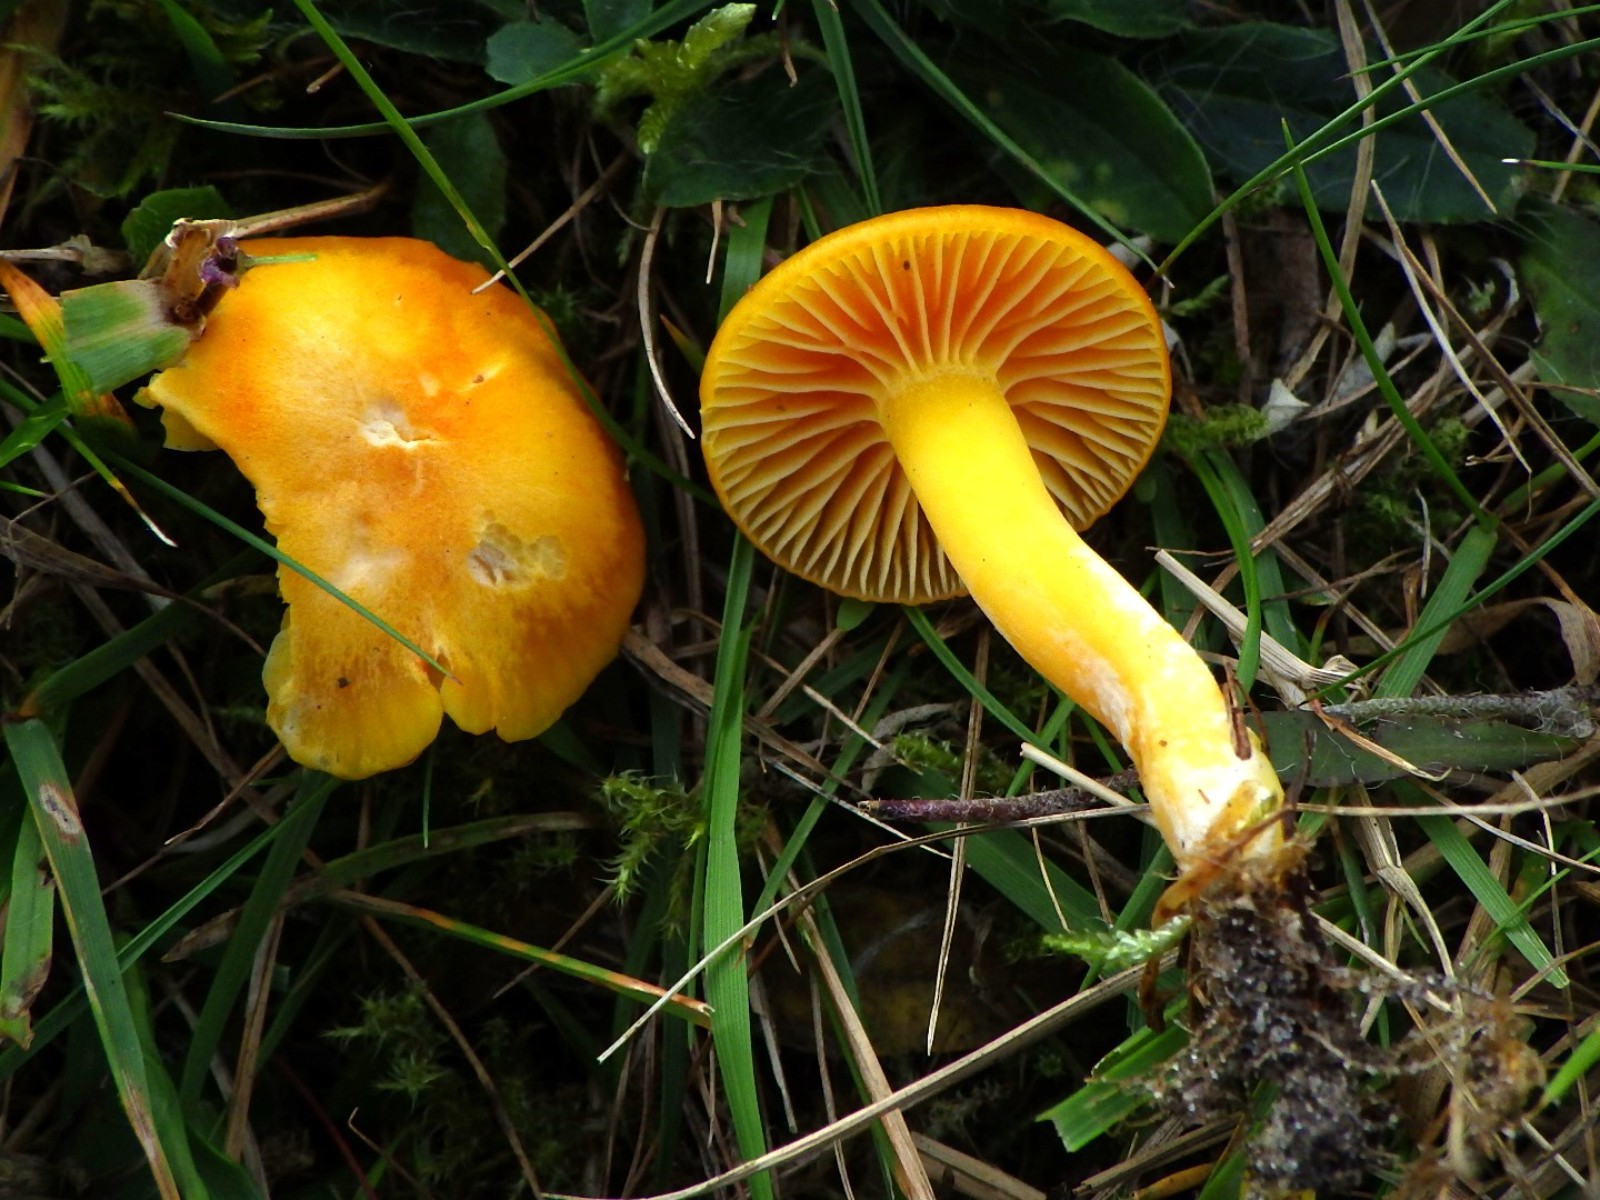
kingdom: Fungi
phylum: Basidiomycota
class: Agaricomycetes
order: Agaricales
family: Hygrophoraceae
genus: Hygrocybe
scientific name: Hygrocybe ceracea
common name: voksgul vokshat
